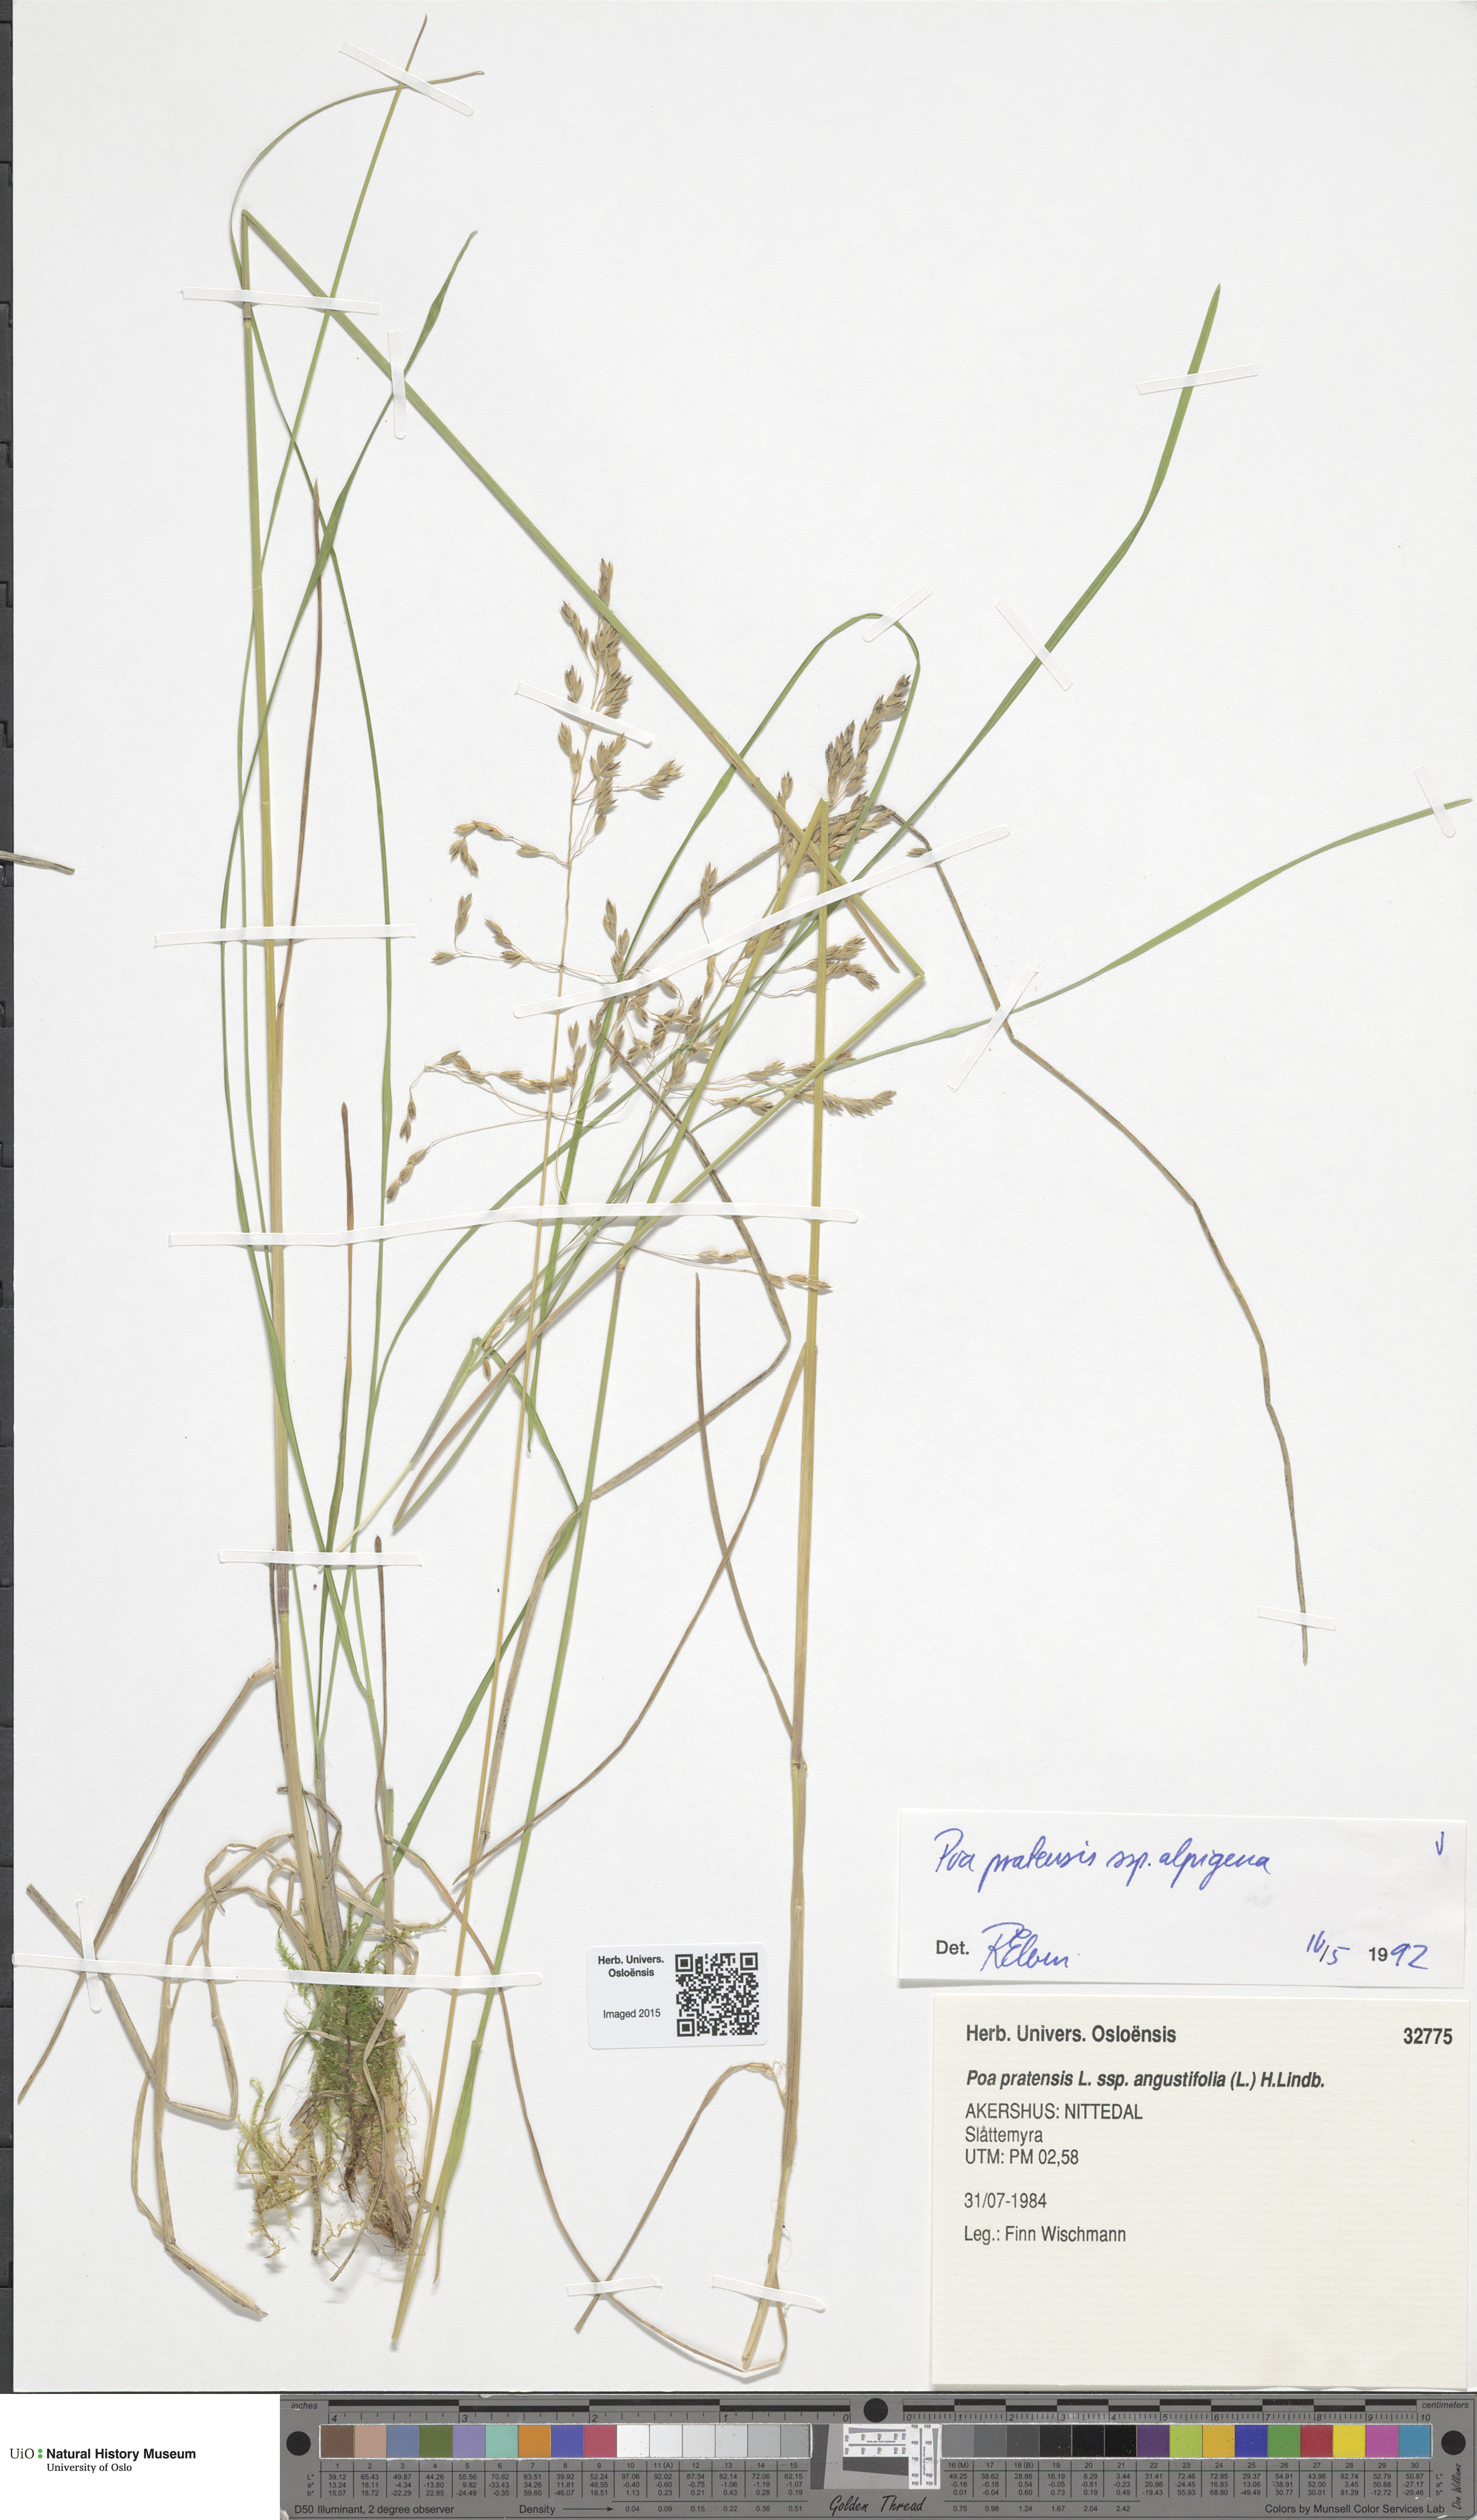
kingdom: Plantae
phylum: Tracheophyta
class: Liliopsida
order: Poales
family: Poaceae
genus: Poa
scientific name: Poa pratensis
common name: Kentucky bluegrass
